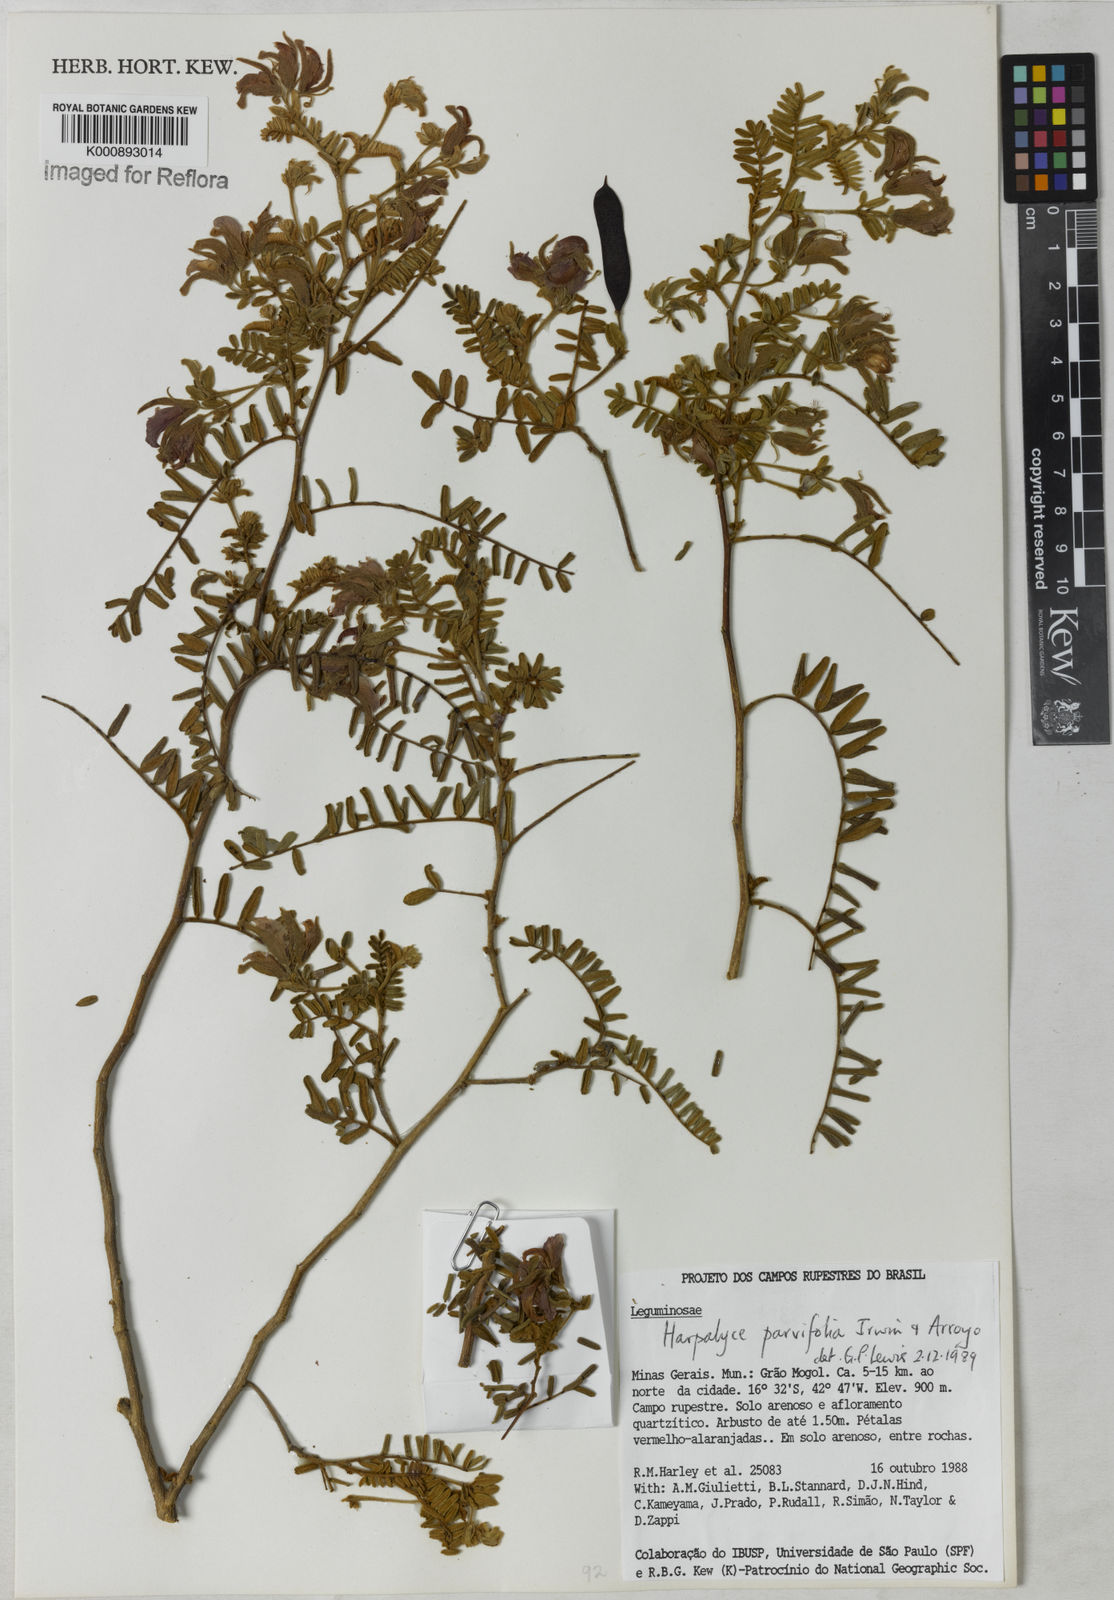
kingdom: Plantae
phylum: Tracheophyta
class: Magnoliopsida
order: Fabales
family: Fabaceae
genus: Harpalyce
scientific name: Harpalyce parvifolia
